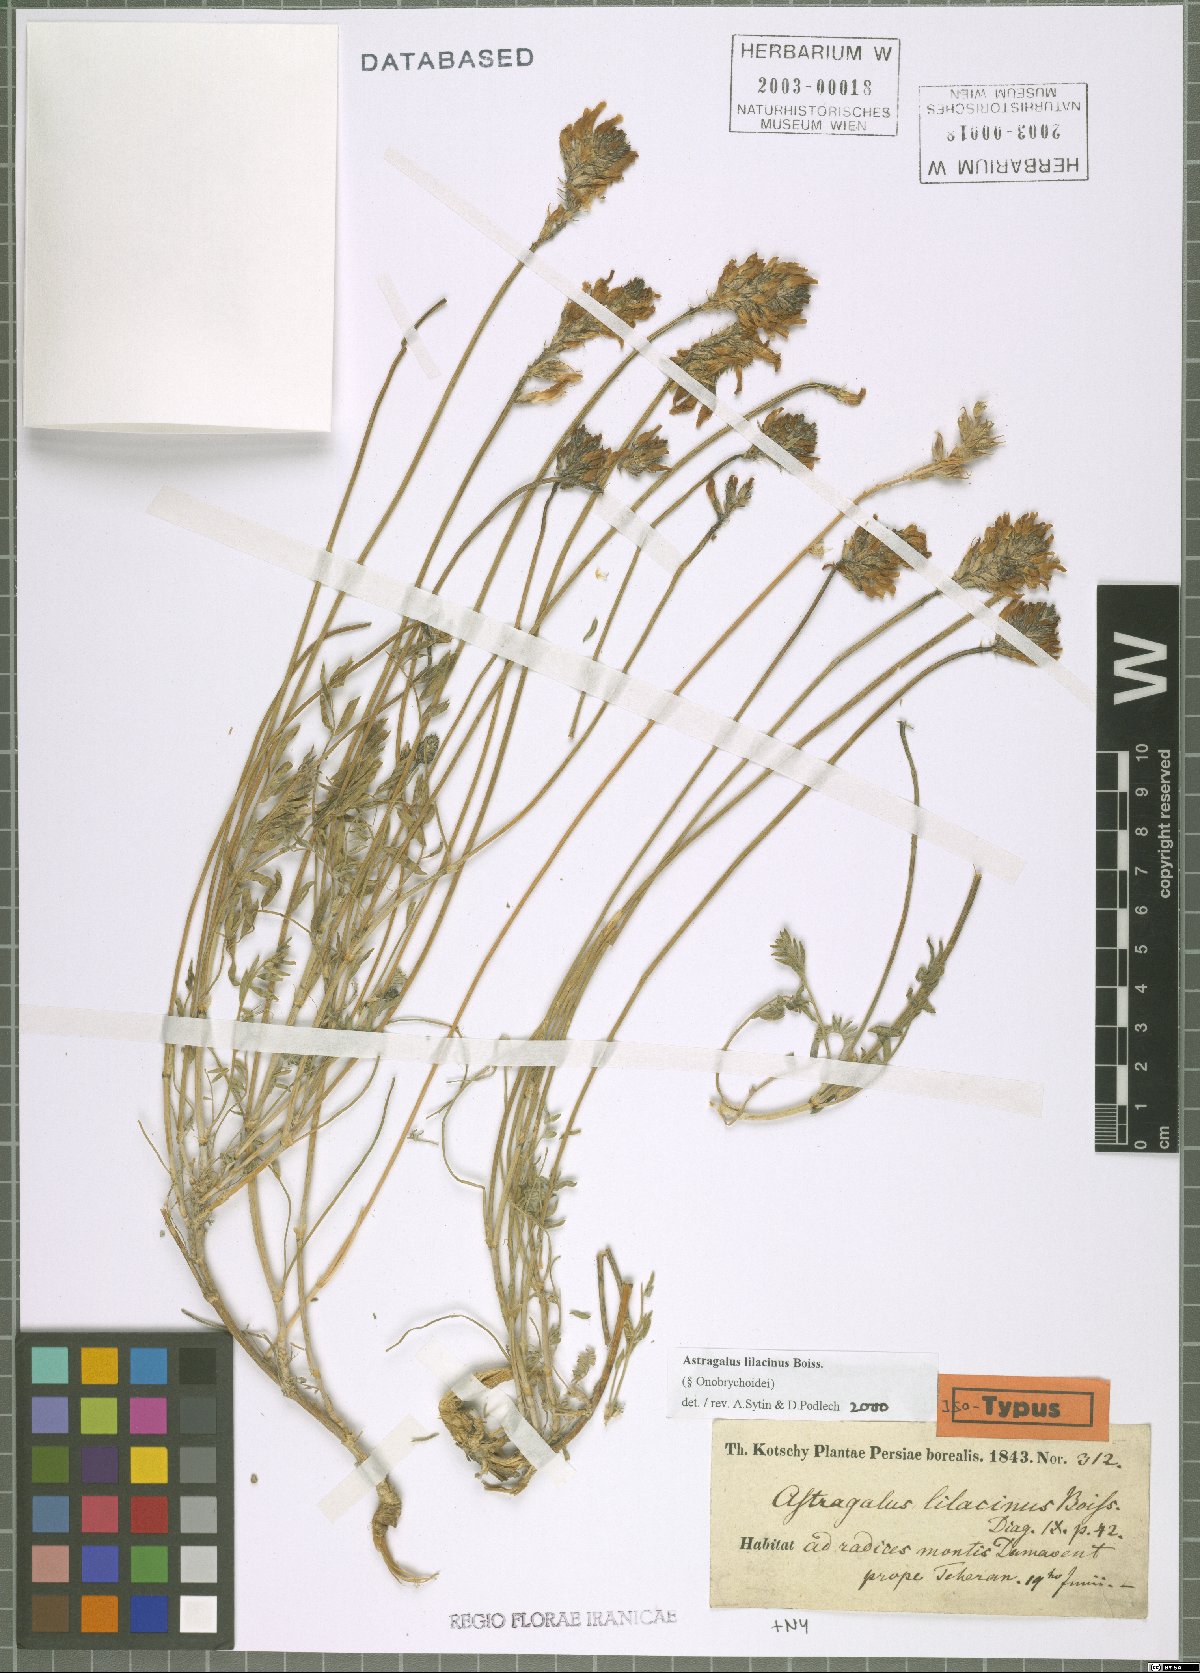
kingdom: Plantae
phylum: Tracheophyta
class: Magnoliopsida
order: Fabales
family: Fabaceae
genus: Astragalus
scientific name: Astragalus lilacinus
